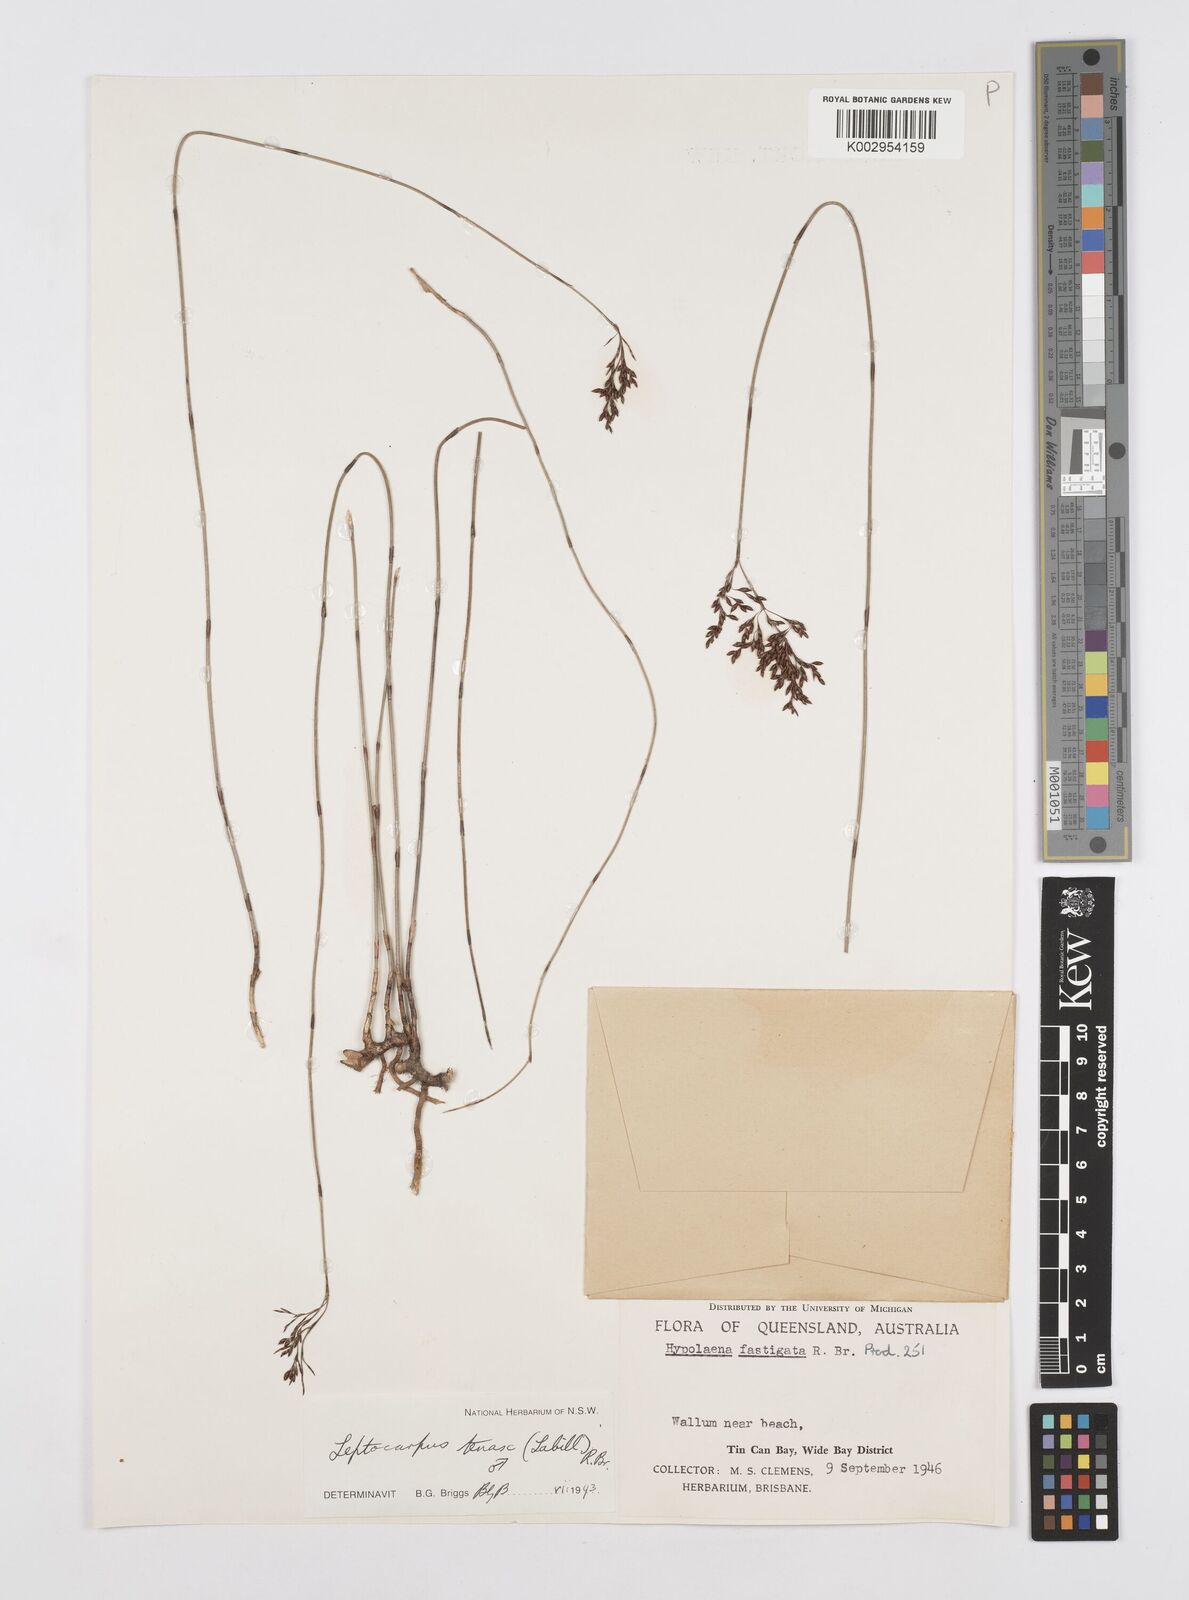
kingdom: Plantae
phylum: Tracheophyta
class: Liliopsida
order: Poales
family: Restionaceae
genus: Leptocarpus
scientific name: Leptocarpus tenax
